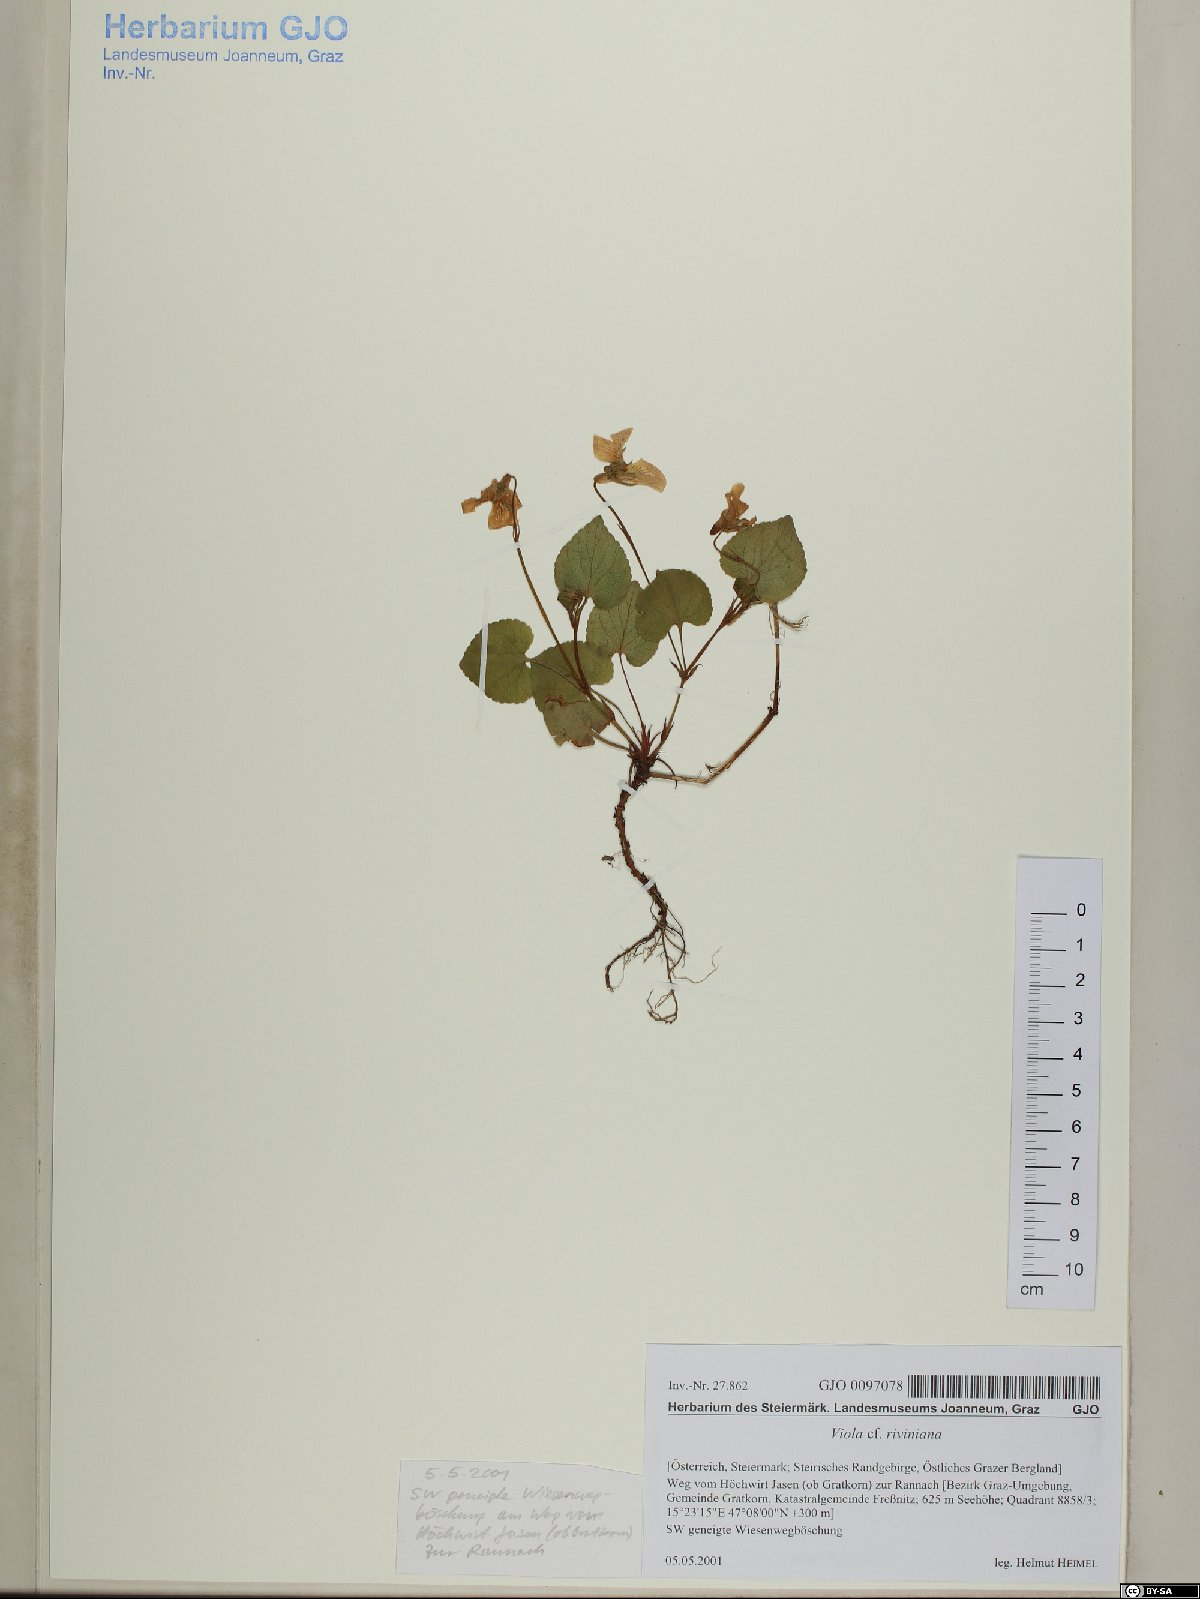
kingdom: Plantae
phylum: Tracheophyta
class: Magnoliopsida
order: Malpighiales
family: Violaceae
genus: Viola
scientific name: Viola riviniana
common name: Common dog-violet
